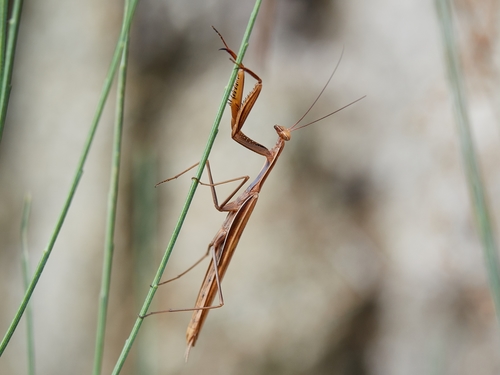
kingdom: Animalia
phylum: Arthropoda
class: Insecta
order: Mantodea
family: Mantidae
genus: Mantis
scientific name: Mantis religiosa
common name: Praying mantis
